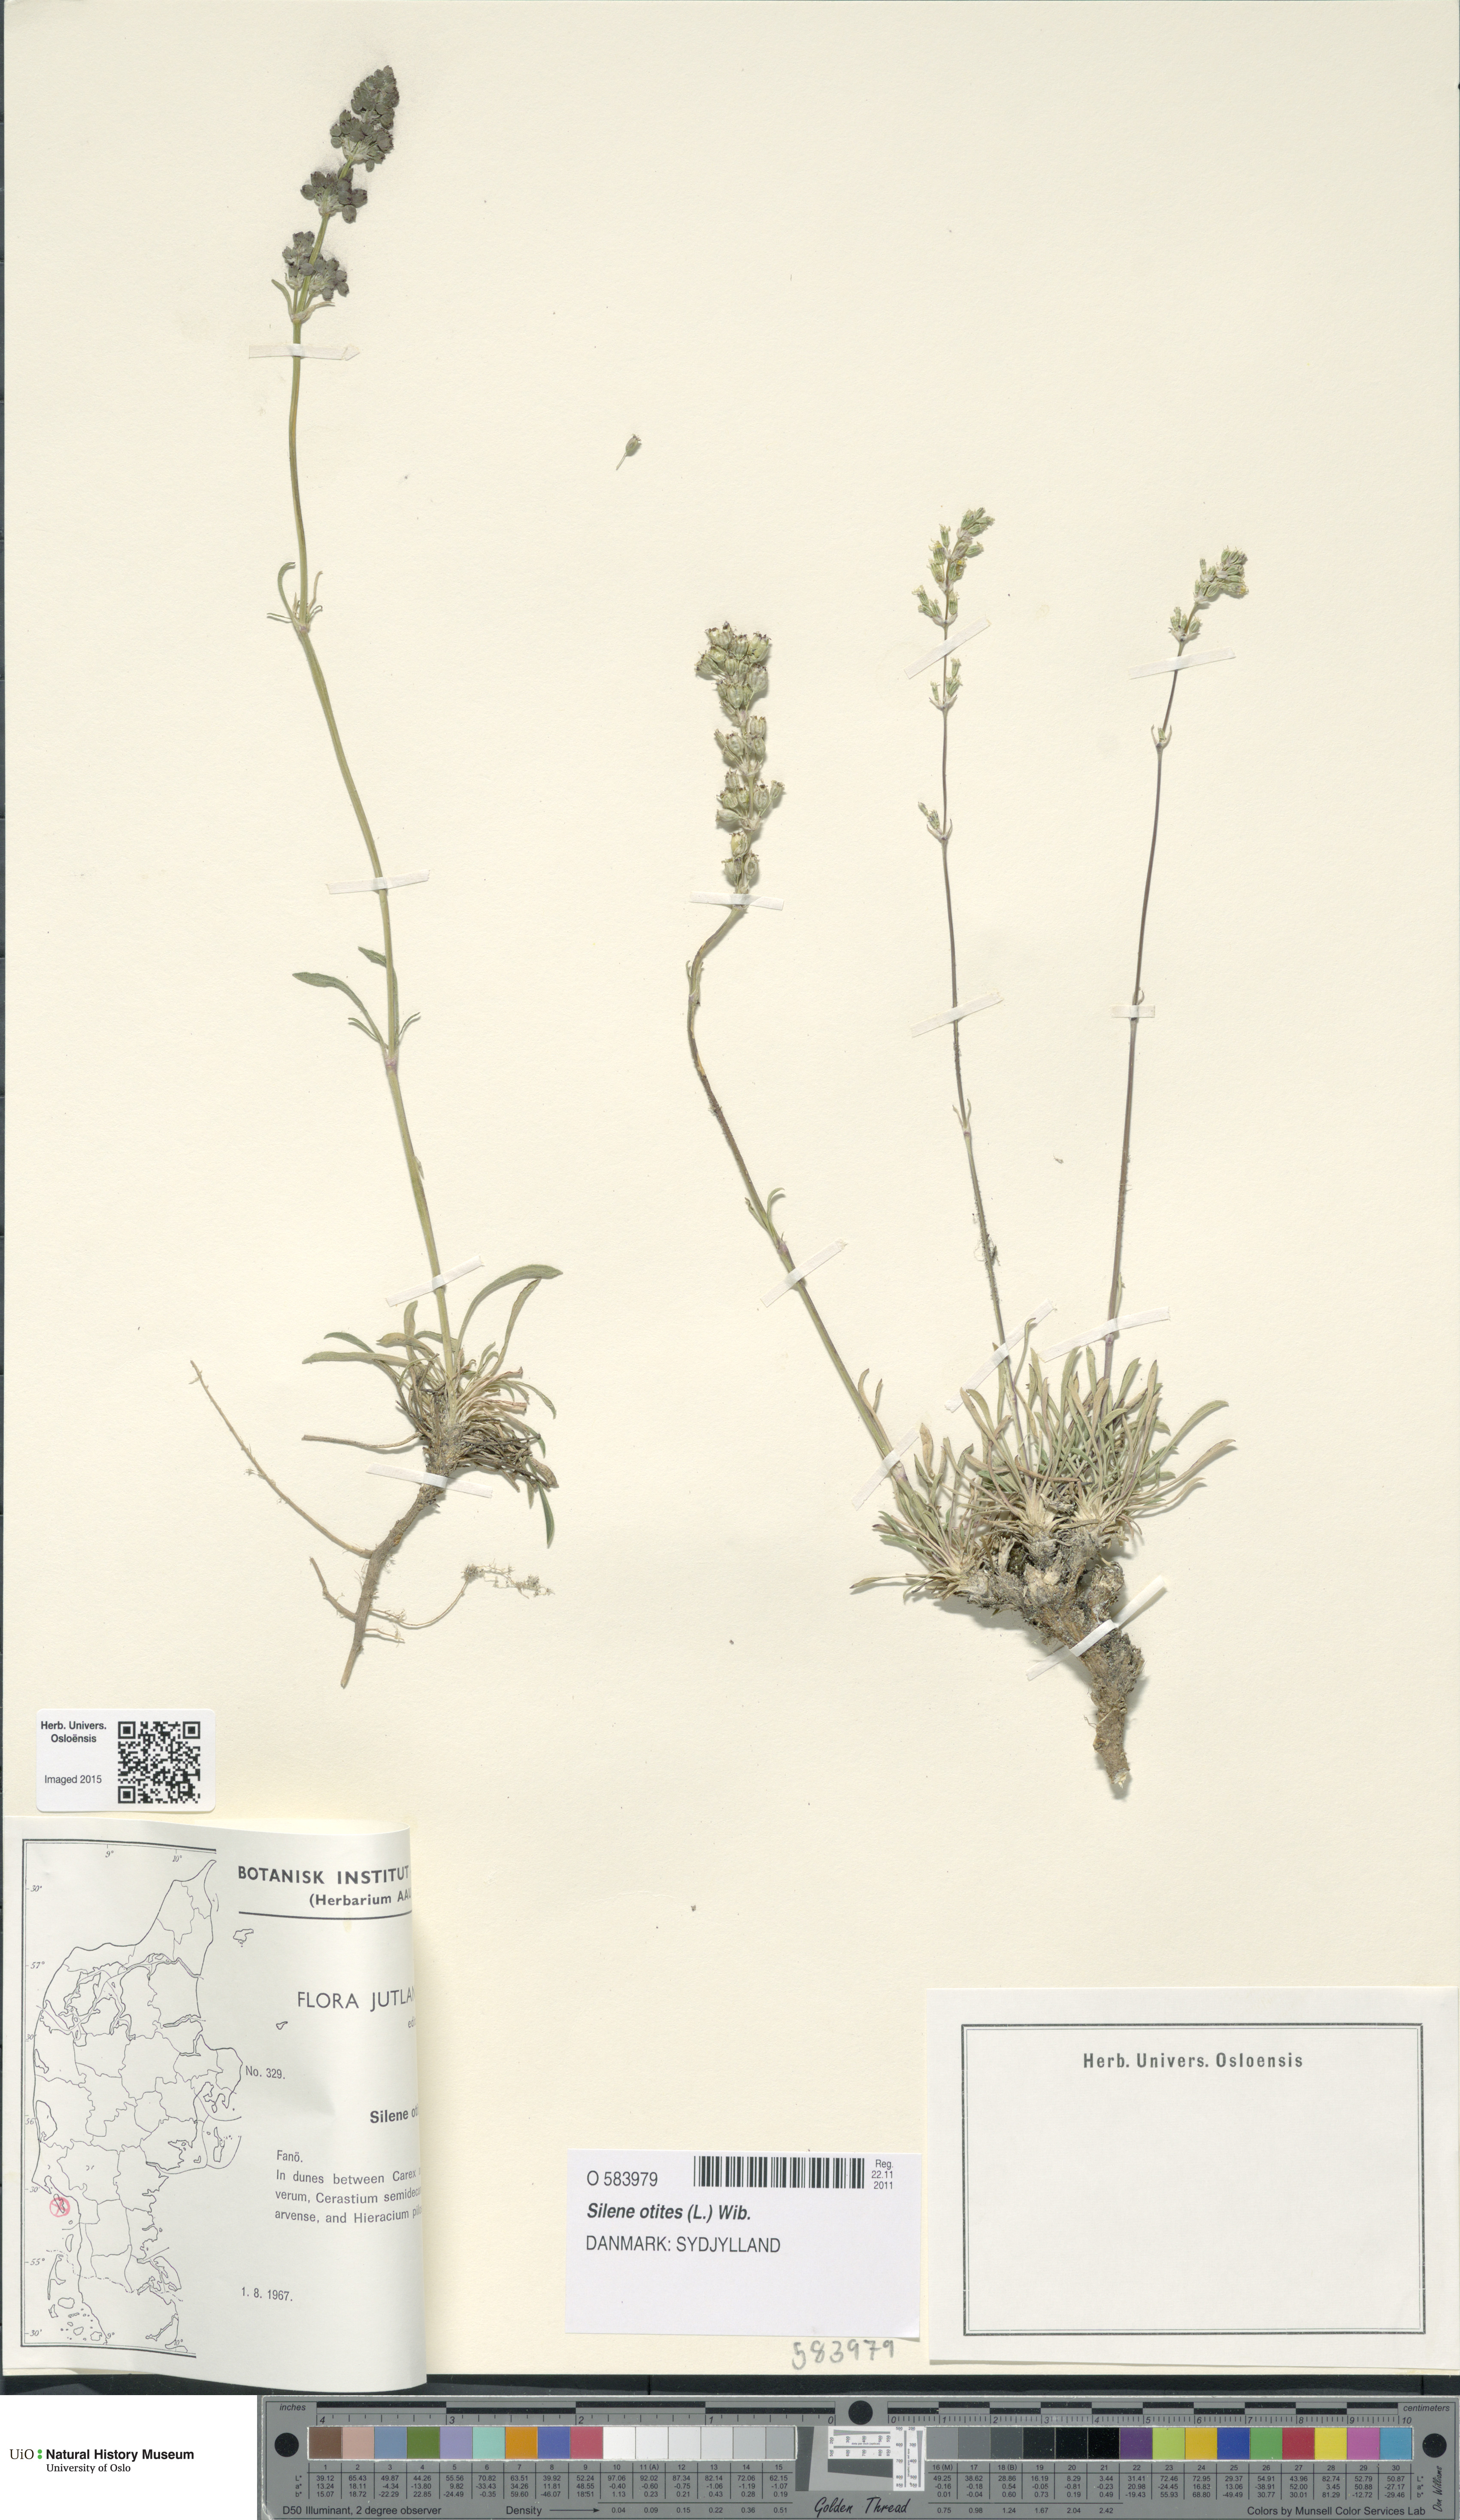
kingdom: Plantae
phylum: Tracheophyta
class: Magnoliopsida
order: Caryophyllales
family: Caryophyllaceae
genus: Silene
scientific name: Silene otites
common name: Spanish catchfly
